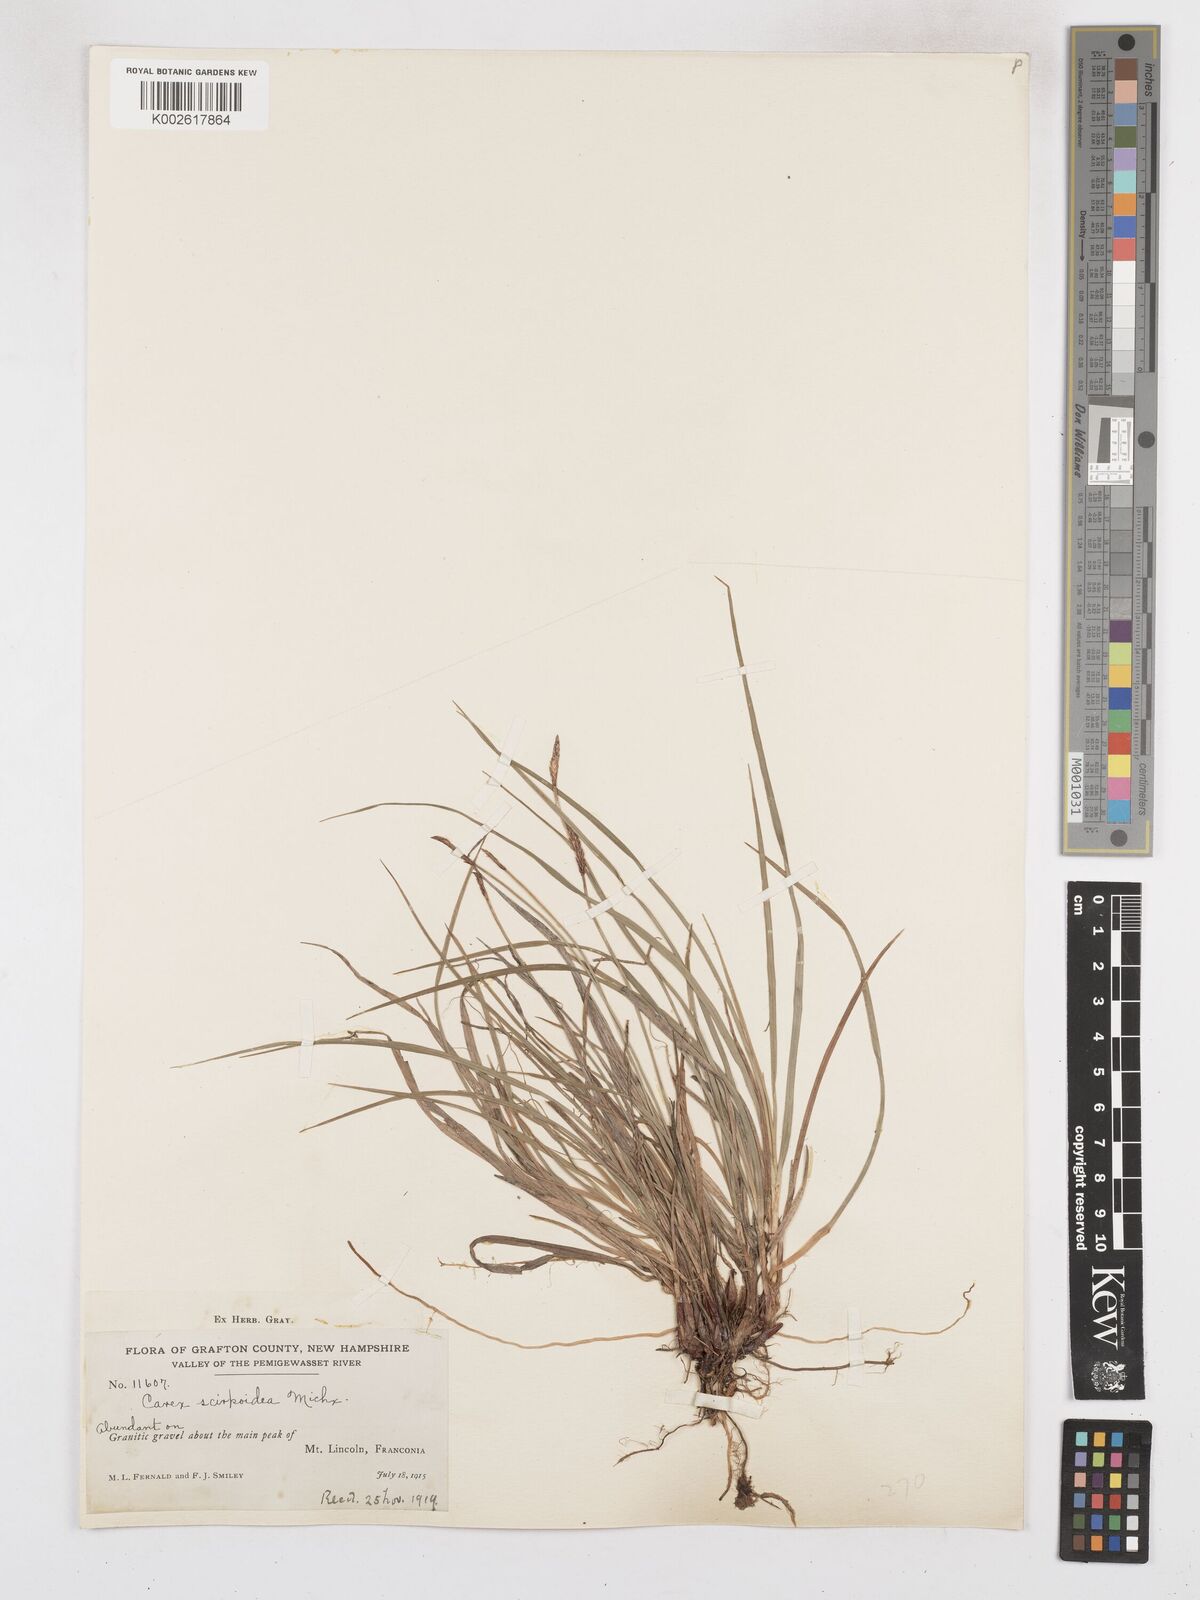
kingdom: Plantae
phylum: Tracheophyta
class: Liliopsida
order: Poales
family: Cyperaceae
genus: Carex
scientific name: Carex scirpoidea
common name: Canada single-spike sedge
